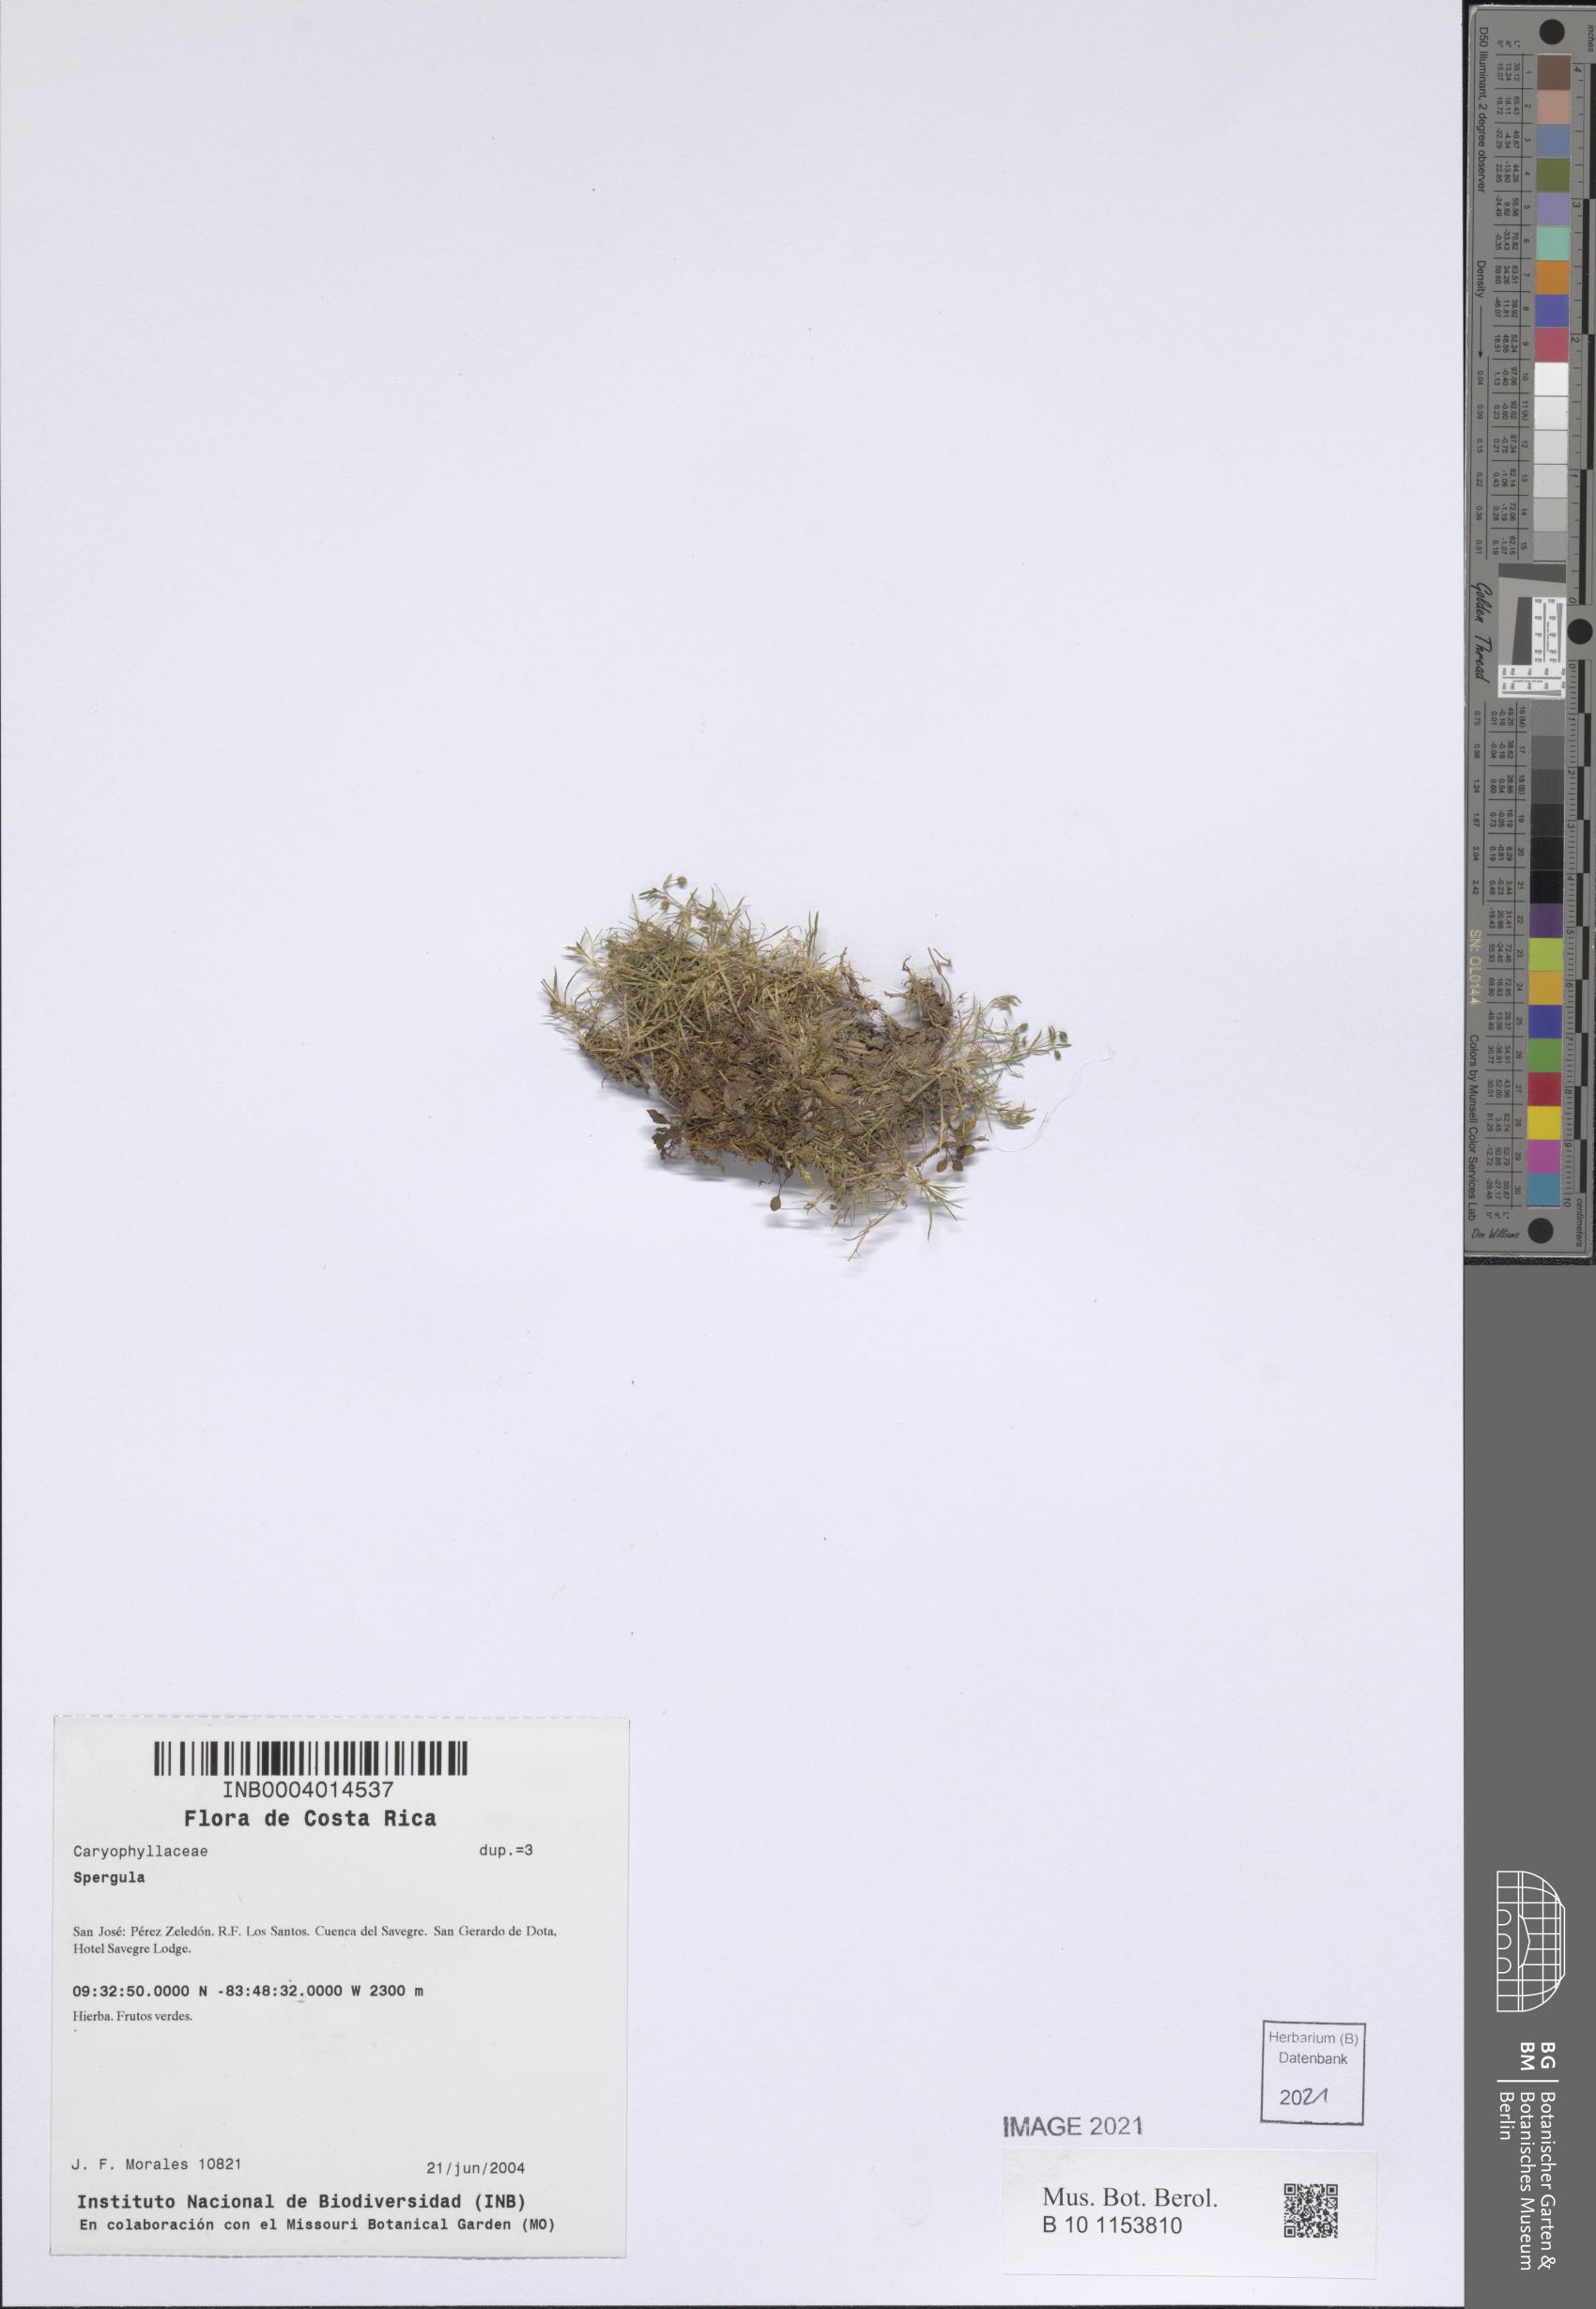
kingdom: Plantae
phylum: Tracheophyta
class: Magnoliopsida
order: Caryophyllales
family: Caryophyllaceae
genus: Sagina
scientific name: Sagina procumbens
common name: Procumbent pearlwort
